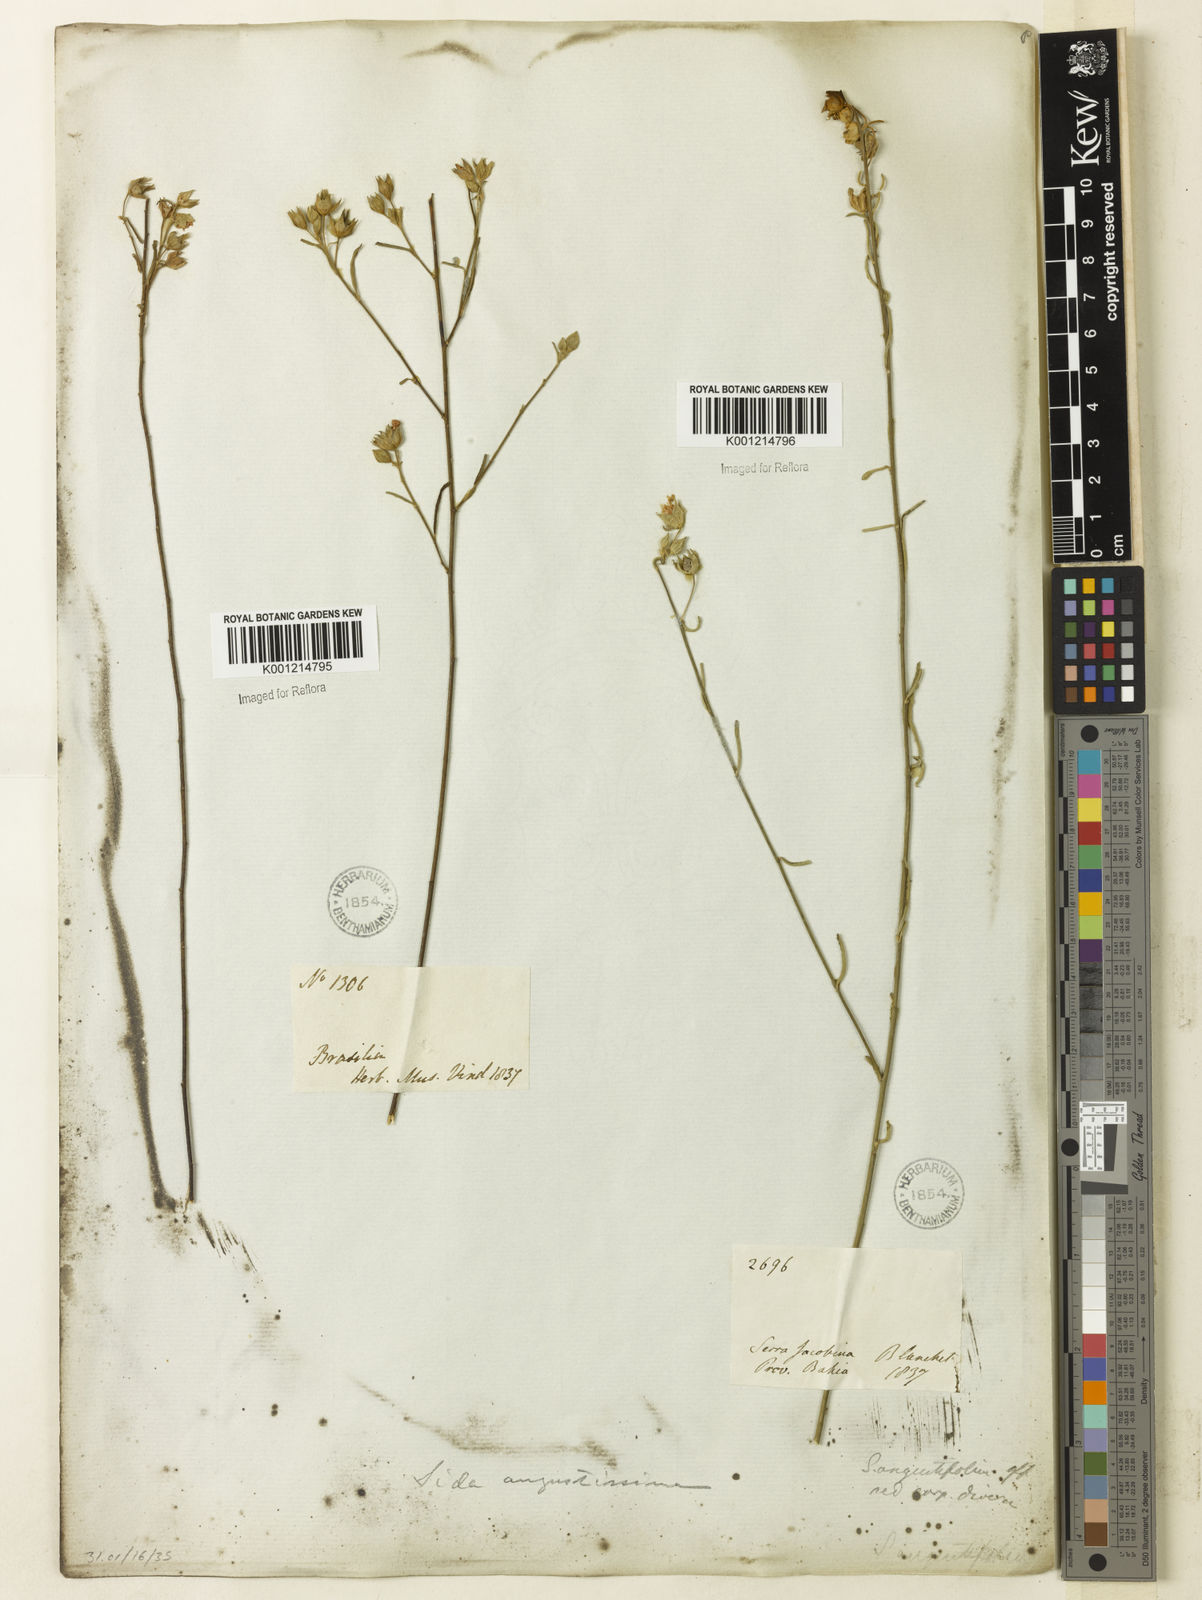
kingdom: Plantae
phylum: Tracheophyta
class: Magnoliopsida
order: Malvales
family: Malvaceae
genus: Sida
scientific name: Sida angustissima
